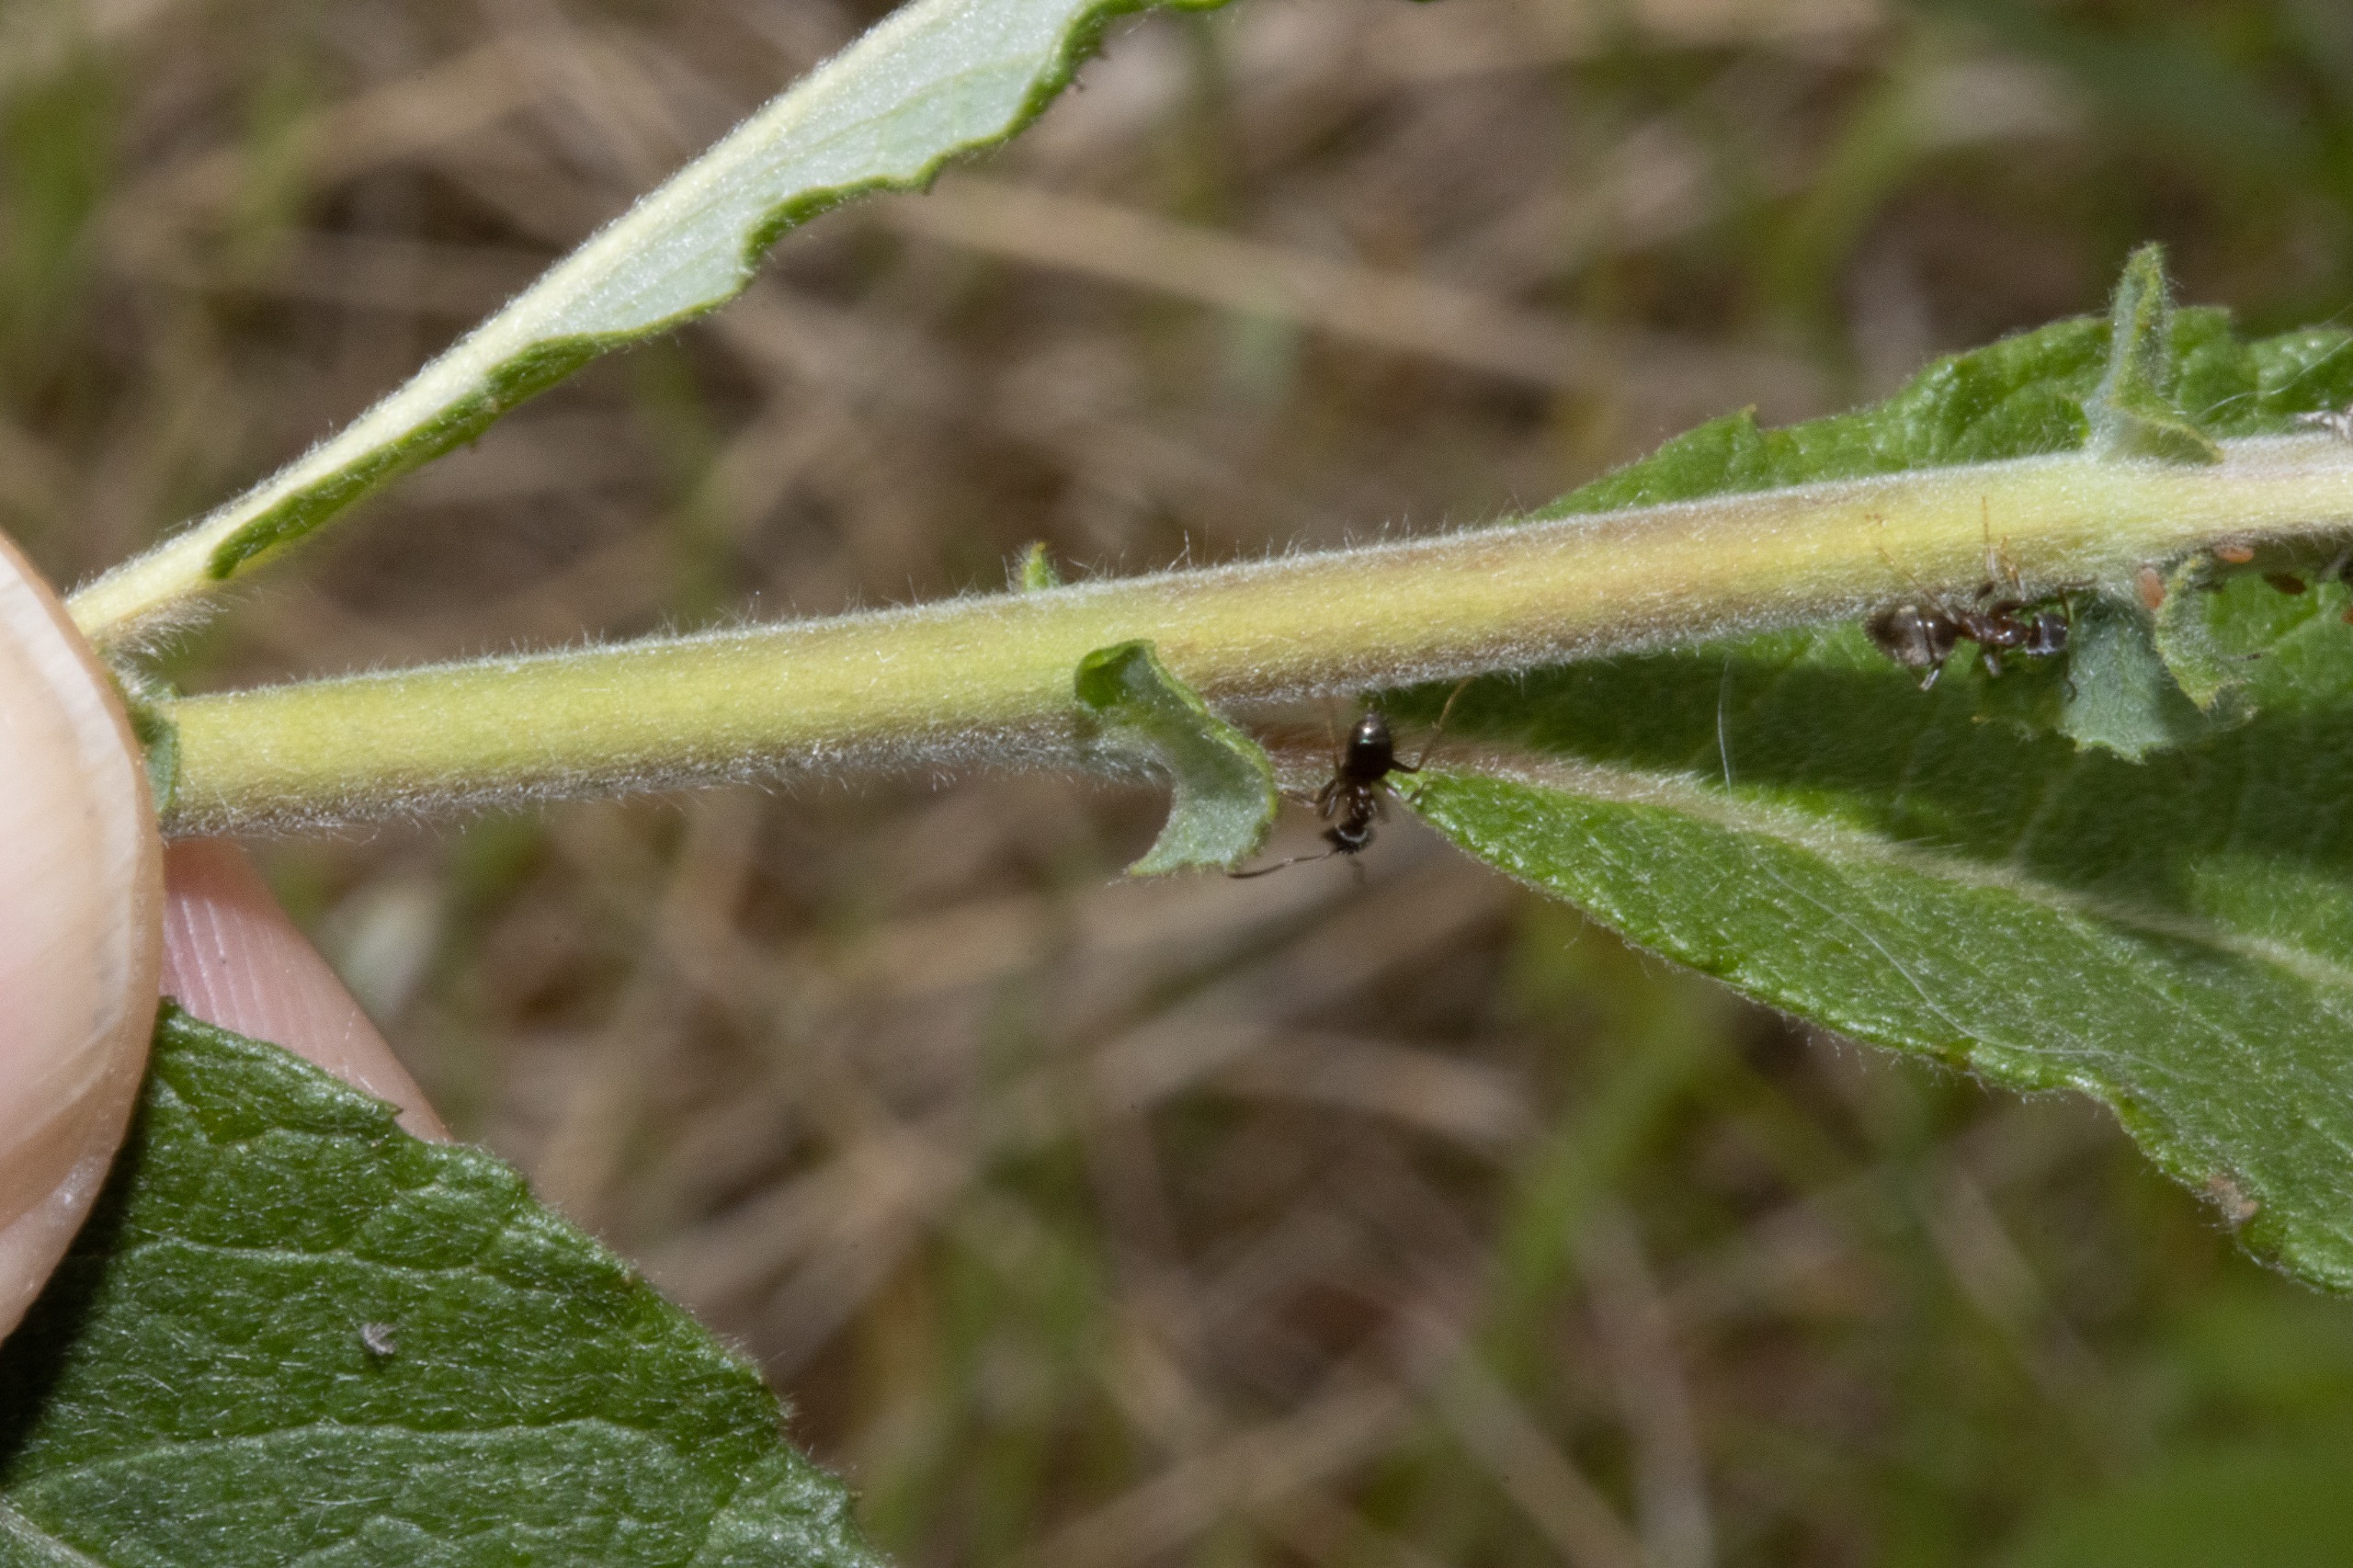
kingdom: Plantae
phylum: Tracheophyta
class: Magnoliopsida
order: Malpighiales
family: Salicaceae
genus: Salix
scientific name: Salix cinerea
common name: Grå-pil
